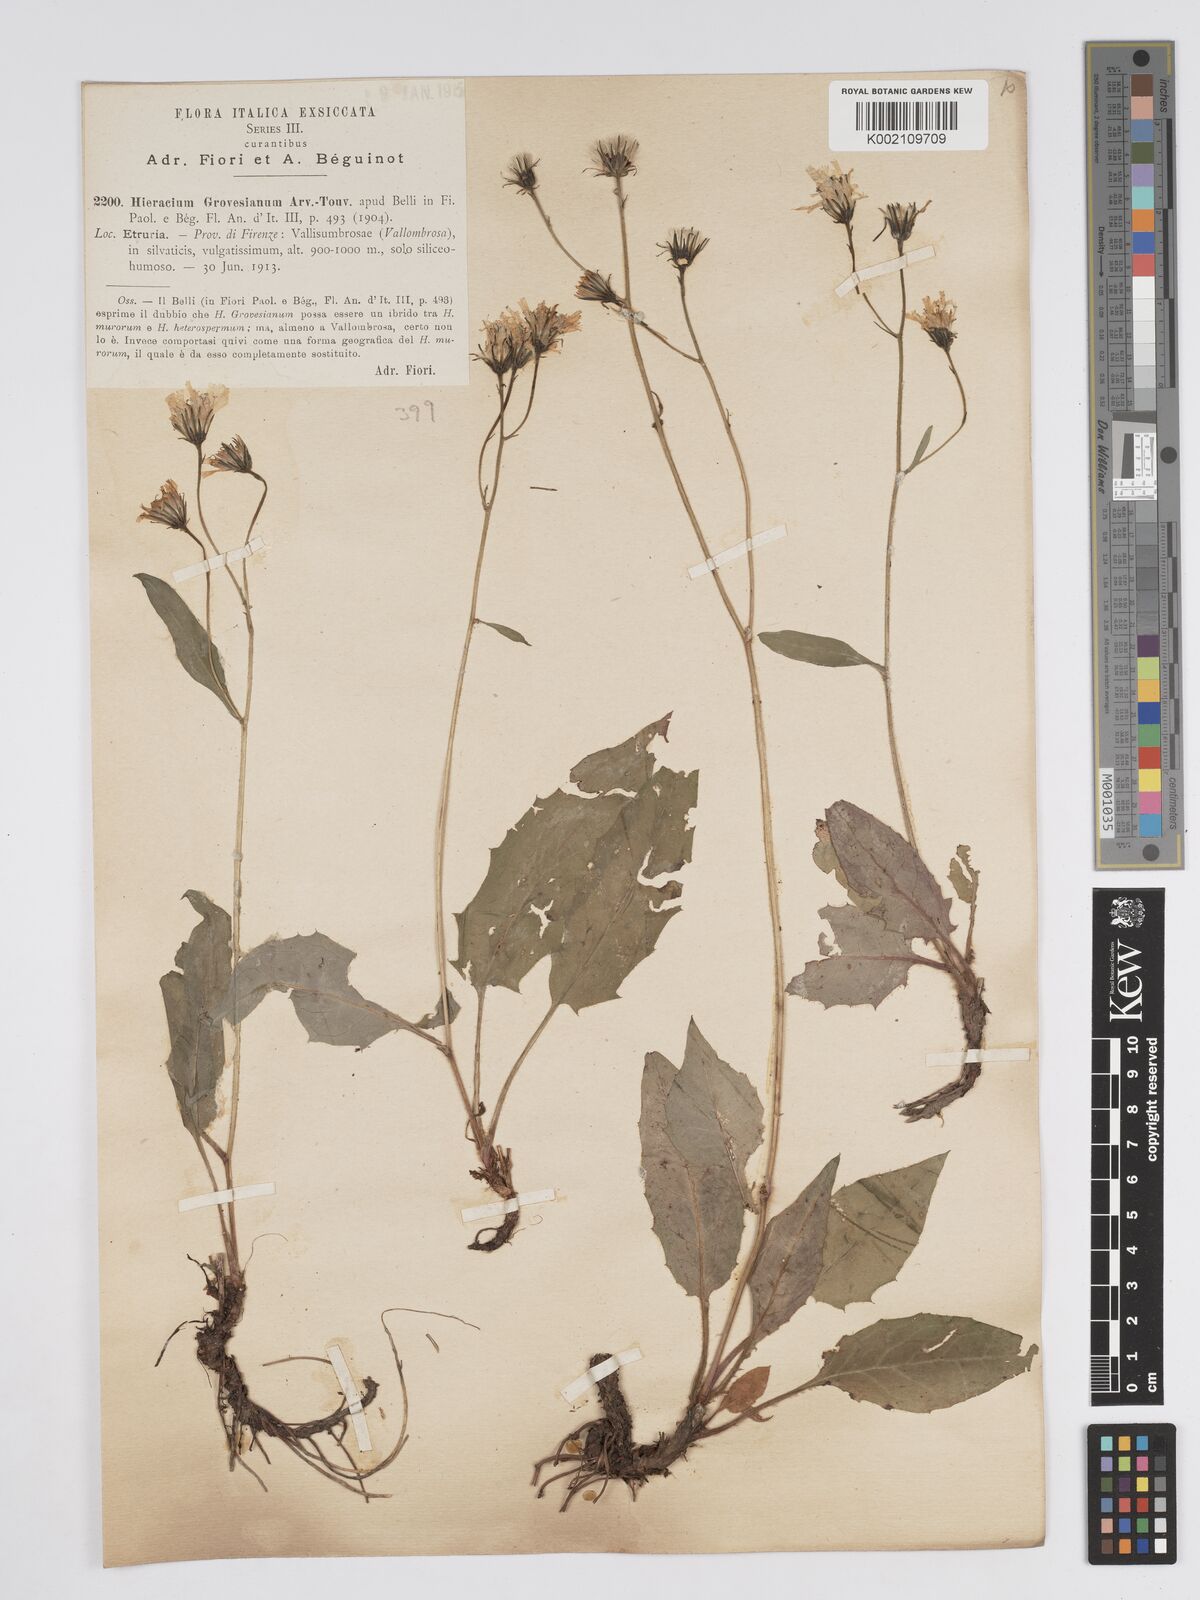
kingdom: Plantae
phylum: Tracheophyta
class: Magnoliopsida
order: Asterales
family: Asteraceae
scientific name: Asteraceae
